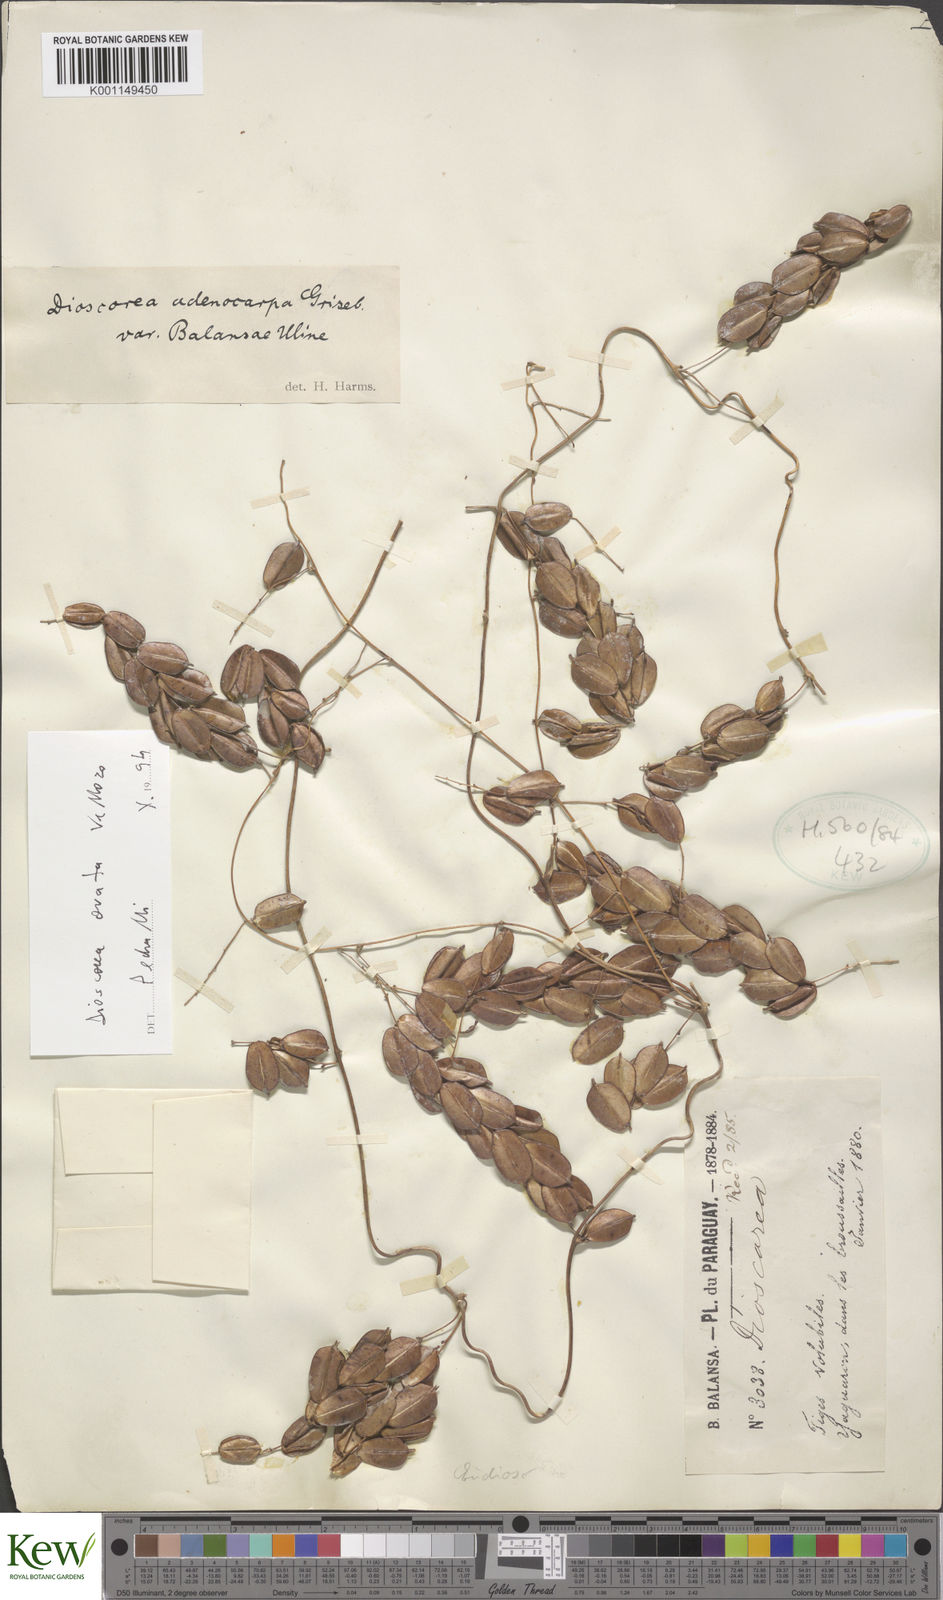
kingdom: Plantae
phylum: Tracheophyta
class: Liliopsida
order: Dioscoreales
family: Dioscoreaceae
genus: Dioscorea
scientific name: Dioscorea ovata
